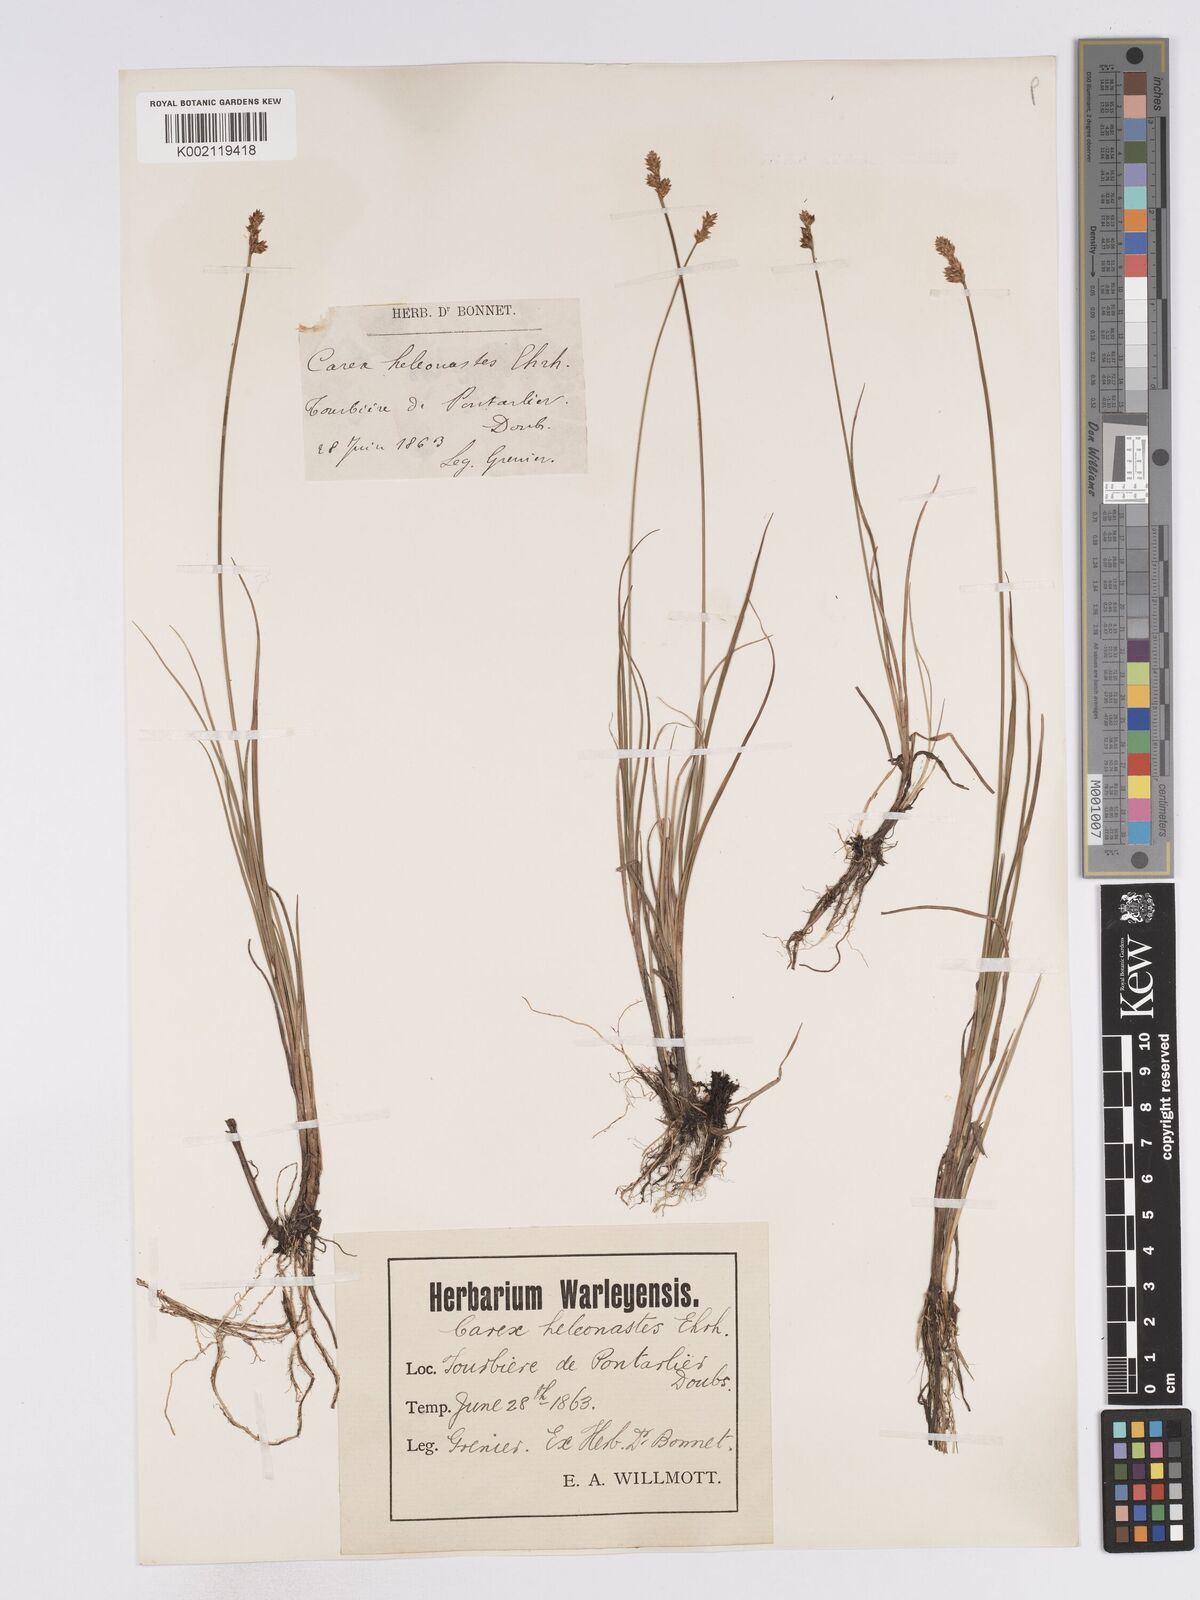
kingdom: Plantae
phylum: Tracheophyta
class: Liliopsida
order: Poales
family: Cyperaceae
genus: Carex
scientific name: Carex heleonastes
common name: Hudson bay sedge
